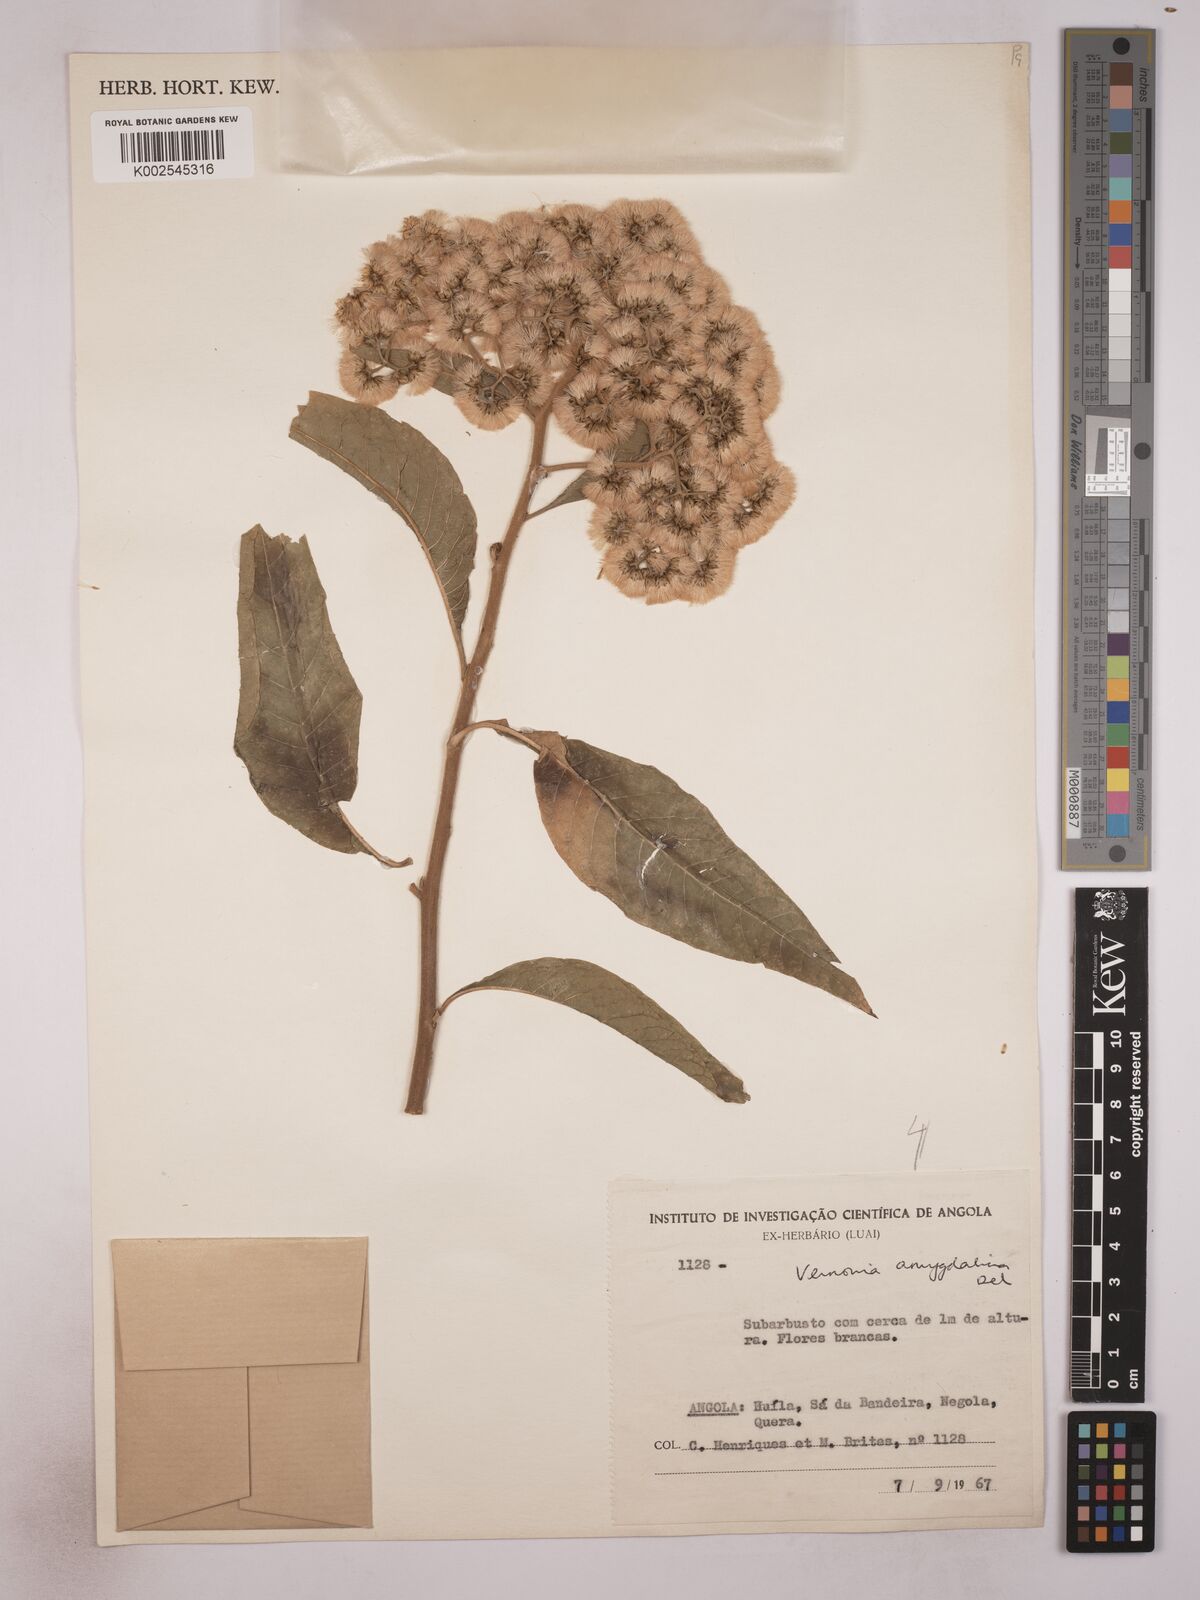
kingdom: Plantae
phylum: Tracheophyta
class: Magnoliopsida
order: Asterales
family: Asteraceae
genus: Gymnanthemum
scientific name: Gymnanthemum amygdalinum
